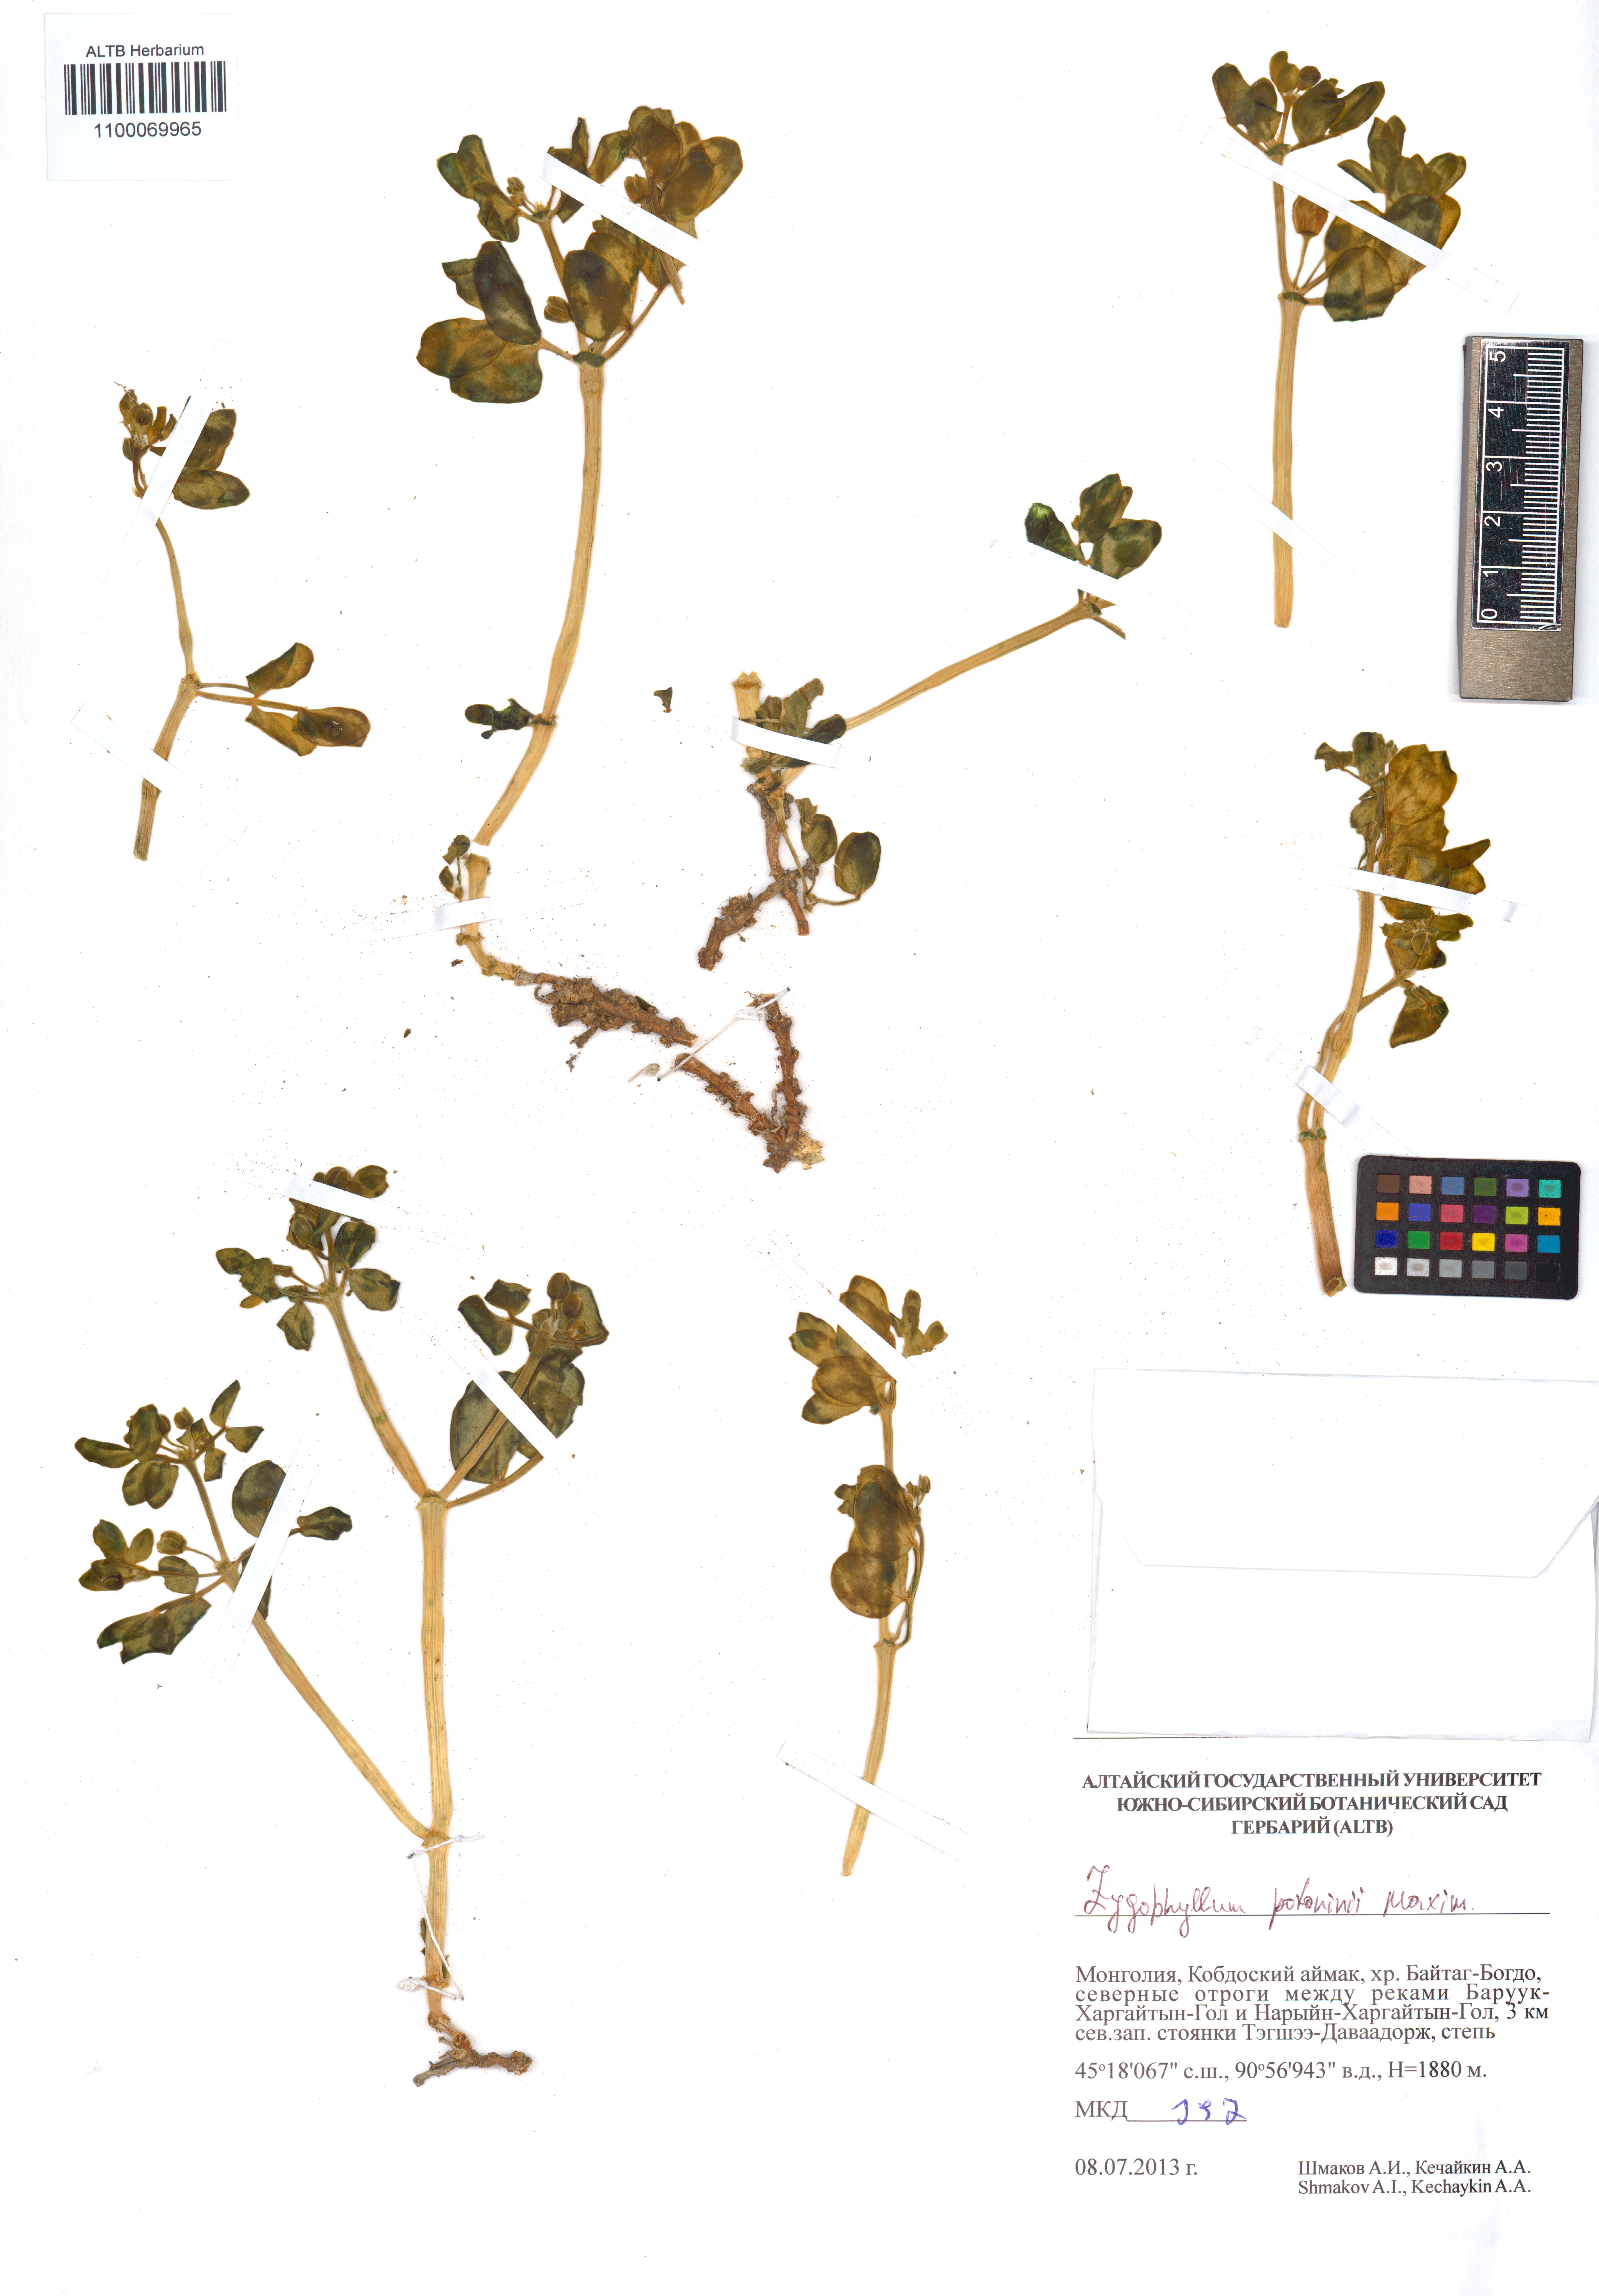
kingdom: Plantae
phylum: Tracheophyta
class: Magnoliopsida
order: Zygophyllales
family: Zygophyllaceae
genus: Zygophyllum
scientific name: Zygophyllum potaninii
